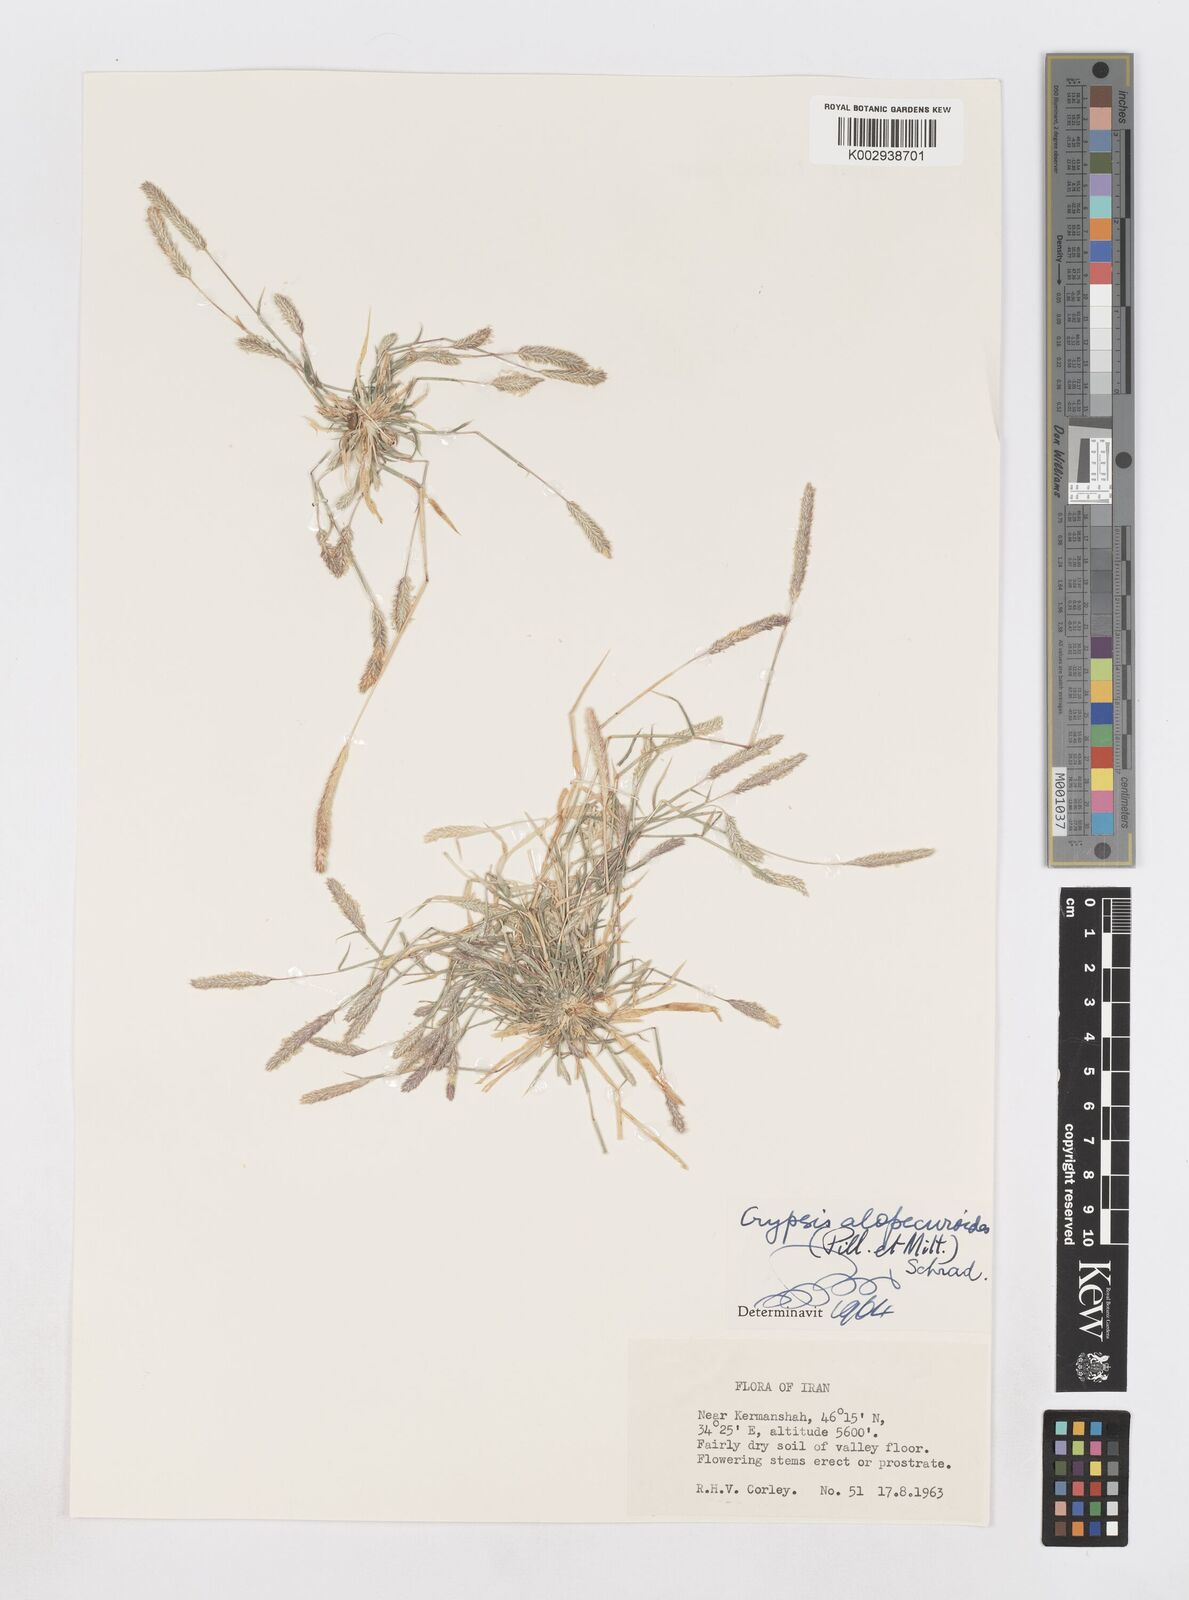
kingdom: Plantae
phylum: Tracheophyta
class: Liliopsida
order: Poales
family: Poaceae
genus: Sporobolus
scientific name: Sporobolus alopecuroides
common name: Foxtail pricklegrass
